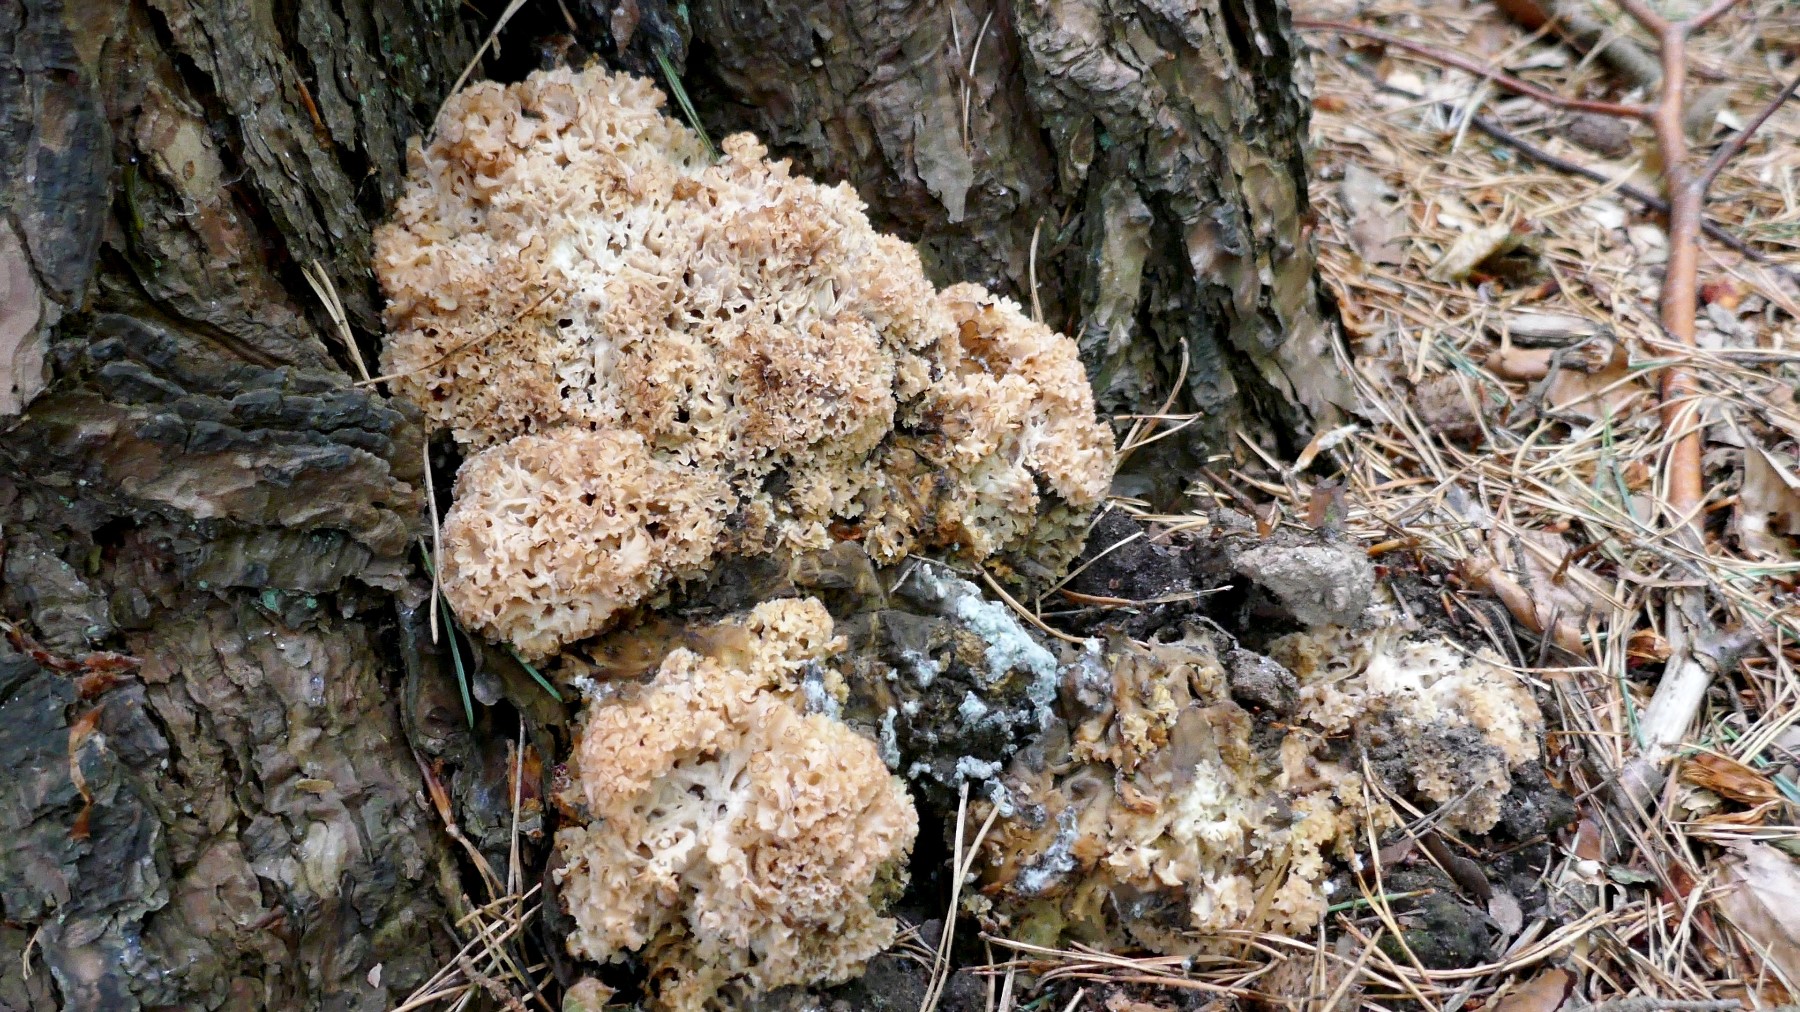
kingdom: Fungi
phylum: Basidiomycota
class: Agaricomycetes
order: Polyporales
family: Sparassidaceae
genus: Sparassis
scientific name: Sparassis crispa
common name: kruset blomkålssvamp
